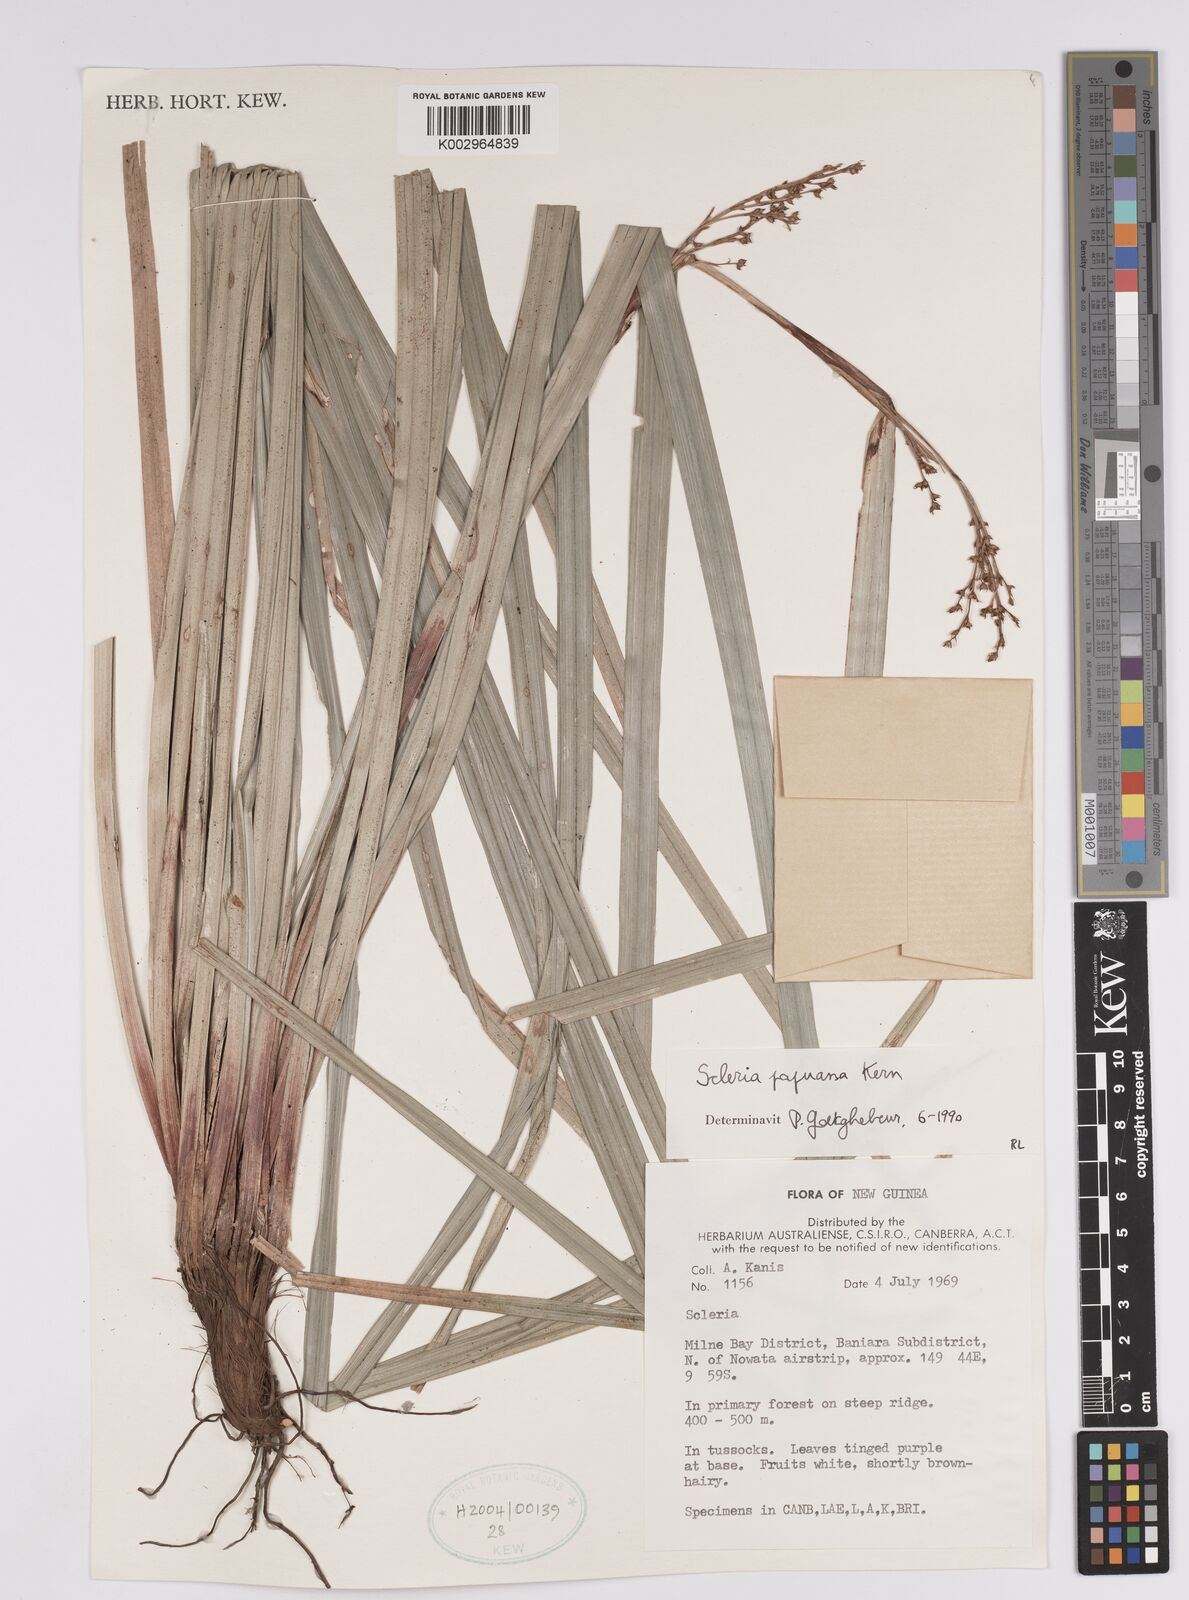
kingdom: Plantae
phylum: Tracheophyta
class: Liliopsida
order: Poales
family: Cyperaceae
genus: Scleria
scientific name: Scleria papuana
